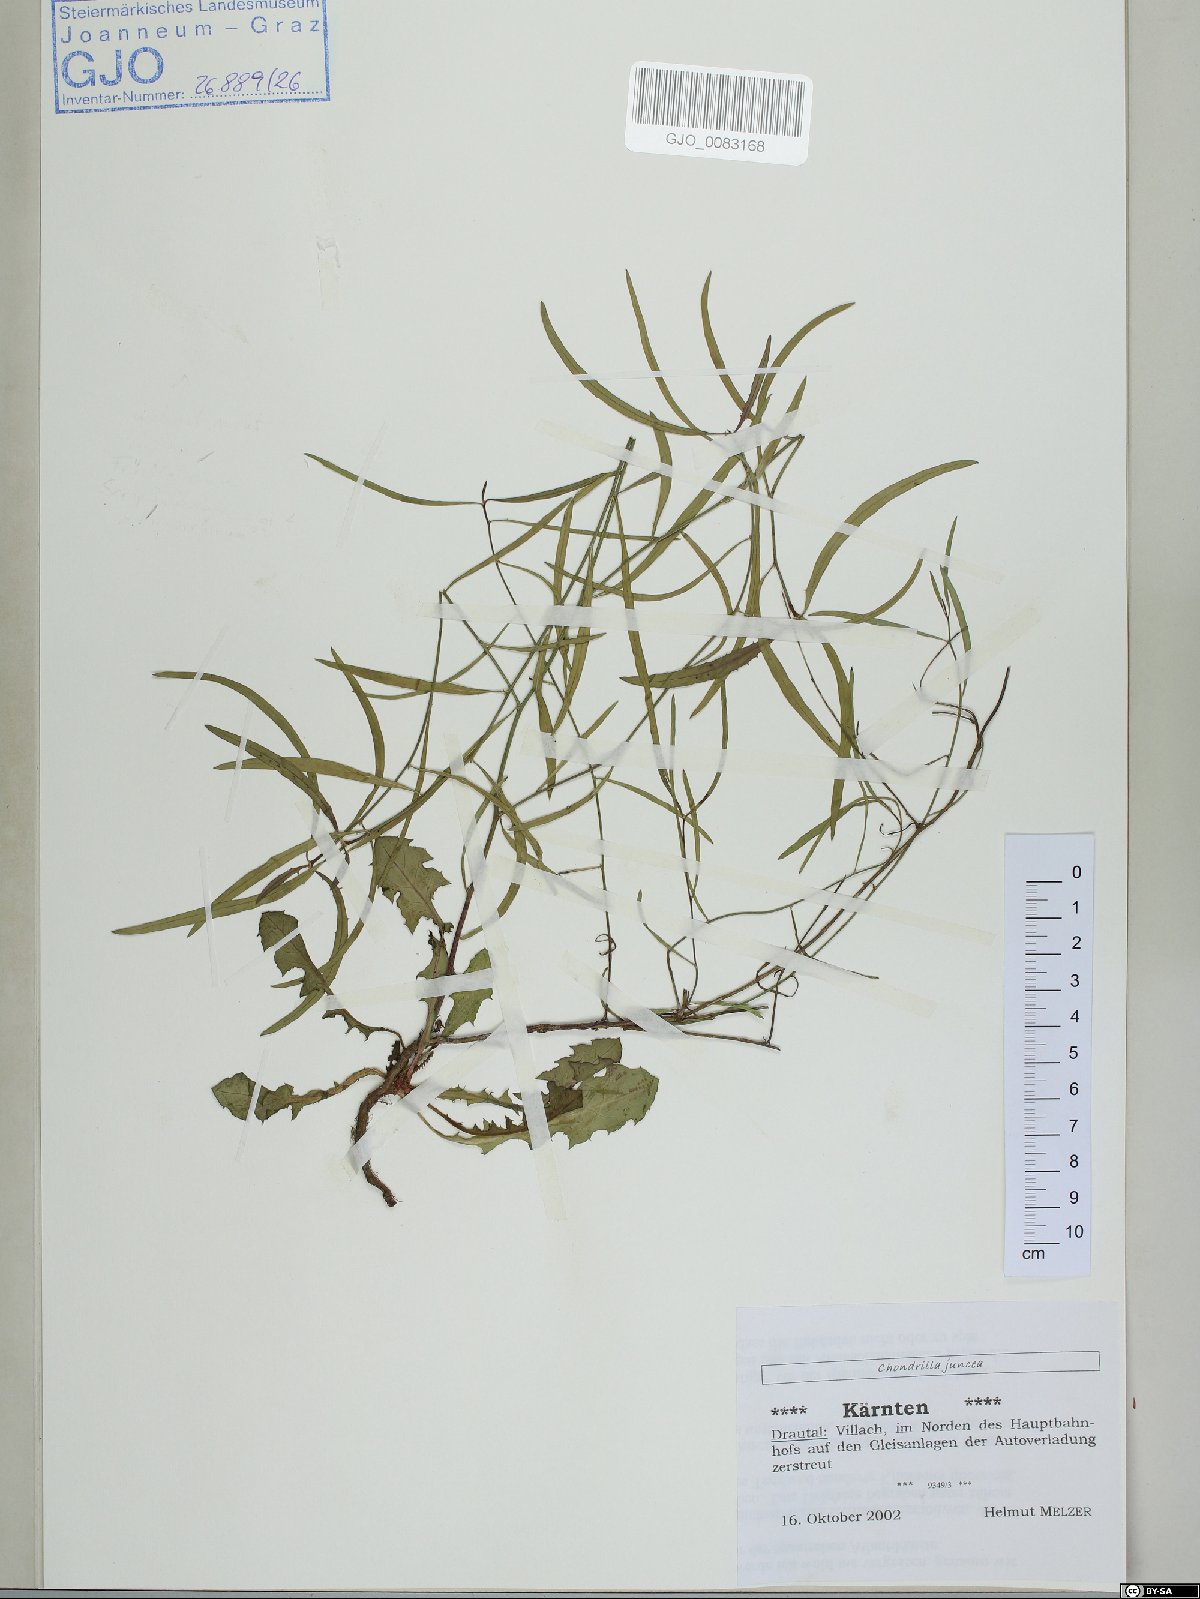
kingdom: Plantae
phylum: Tracheophyta
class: Magnoliopsida
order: Asterales
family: Asteraceae
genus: Chondrilla
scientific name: Chondrilla juncea
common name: Skeleton weed
